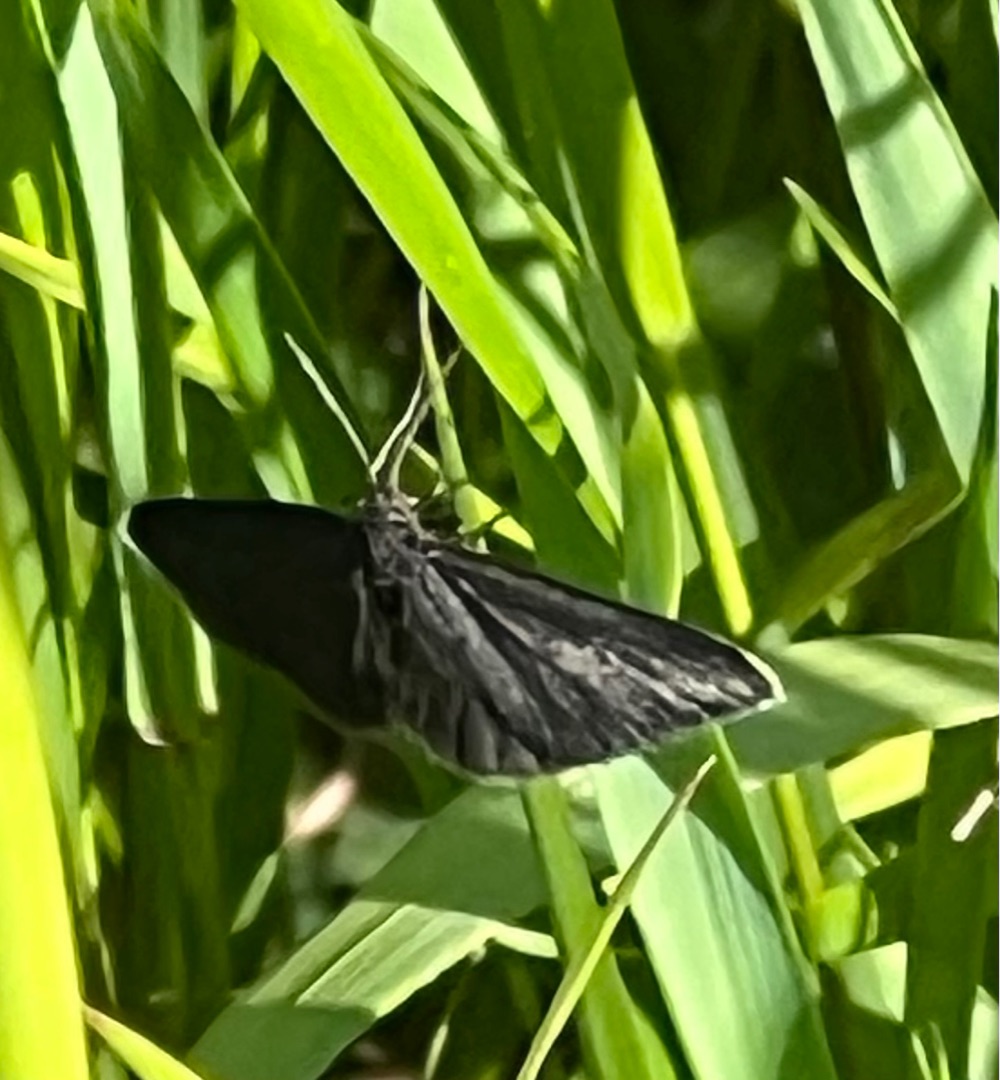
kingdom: Animalia
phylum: Arthropoda
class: Insecta
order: Lepidoptera
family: Geometridae
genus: Odezia
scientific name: Odezia atrata
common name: Sort måler
